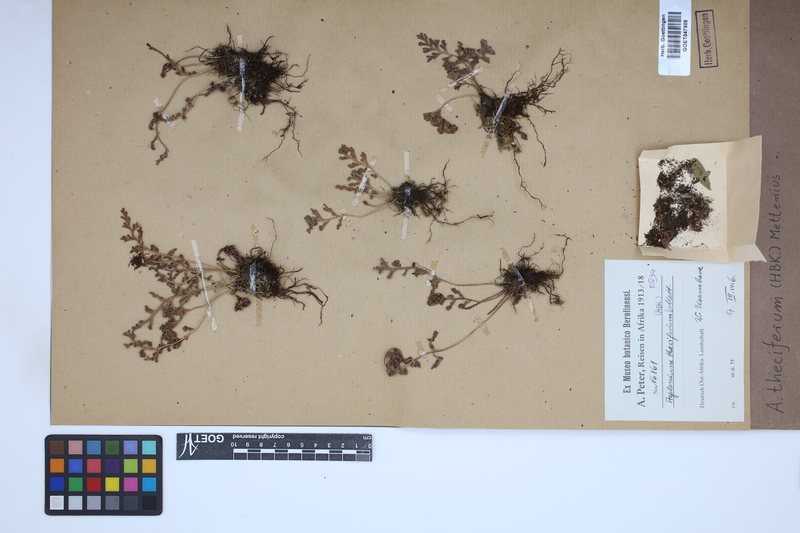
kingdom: Plantae
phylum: Tracheophyta
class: Polypodiopsida
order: Polypodiales
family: Aspleniaceae
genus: Asplenium
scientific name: Asplenium theciferum
